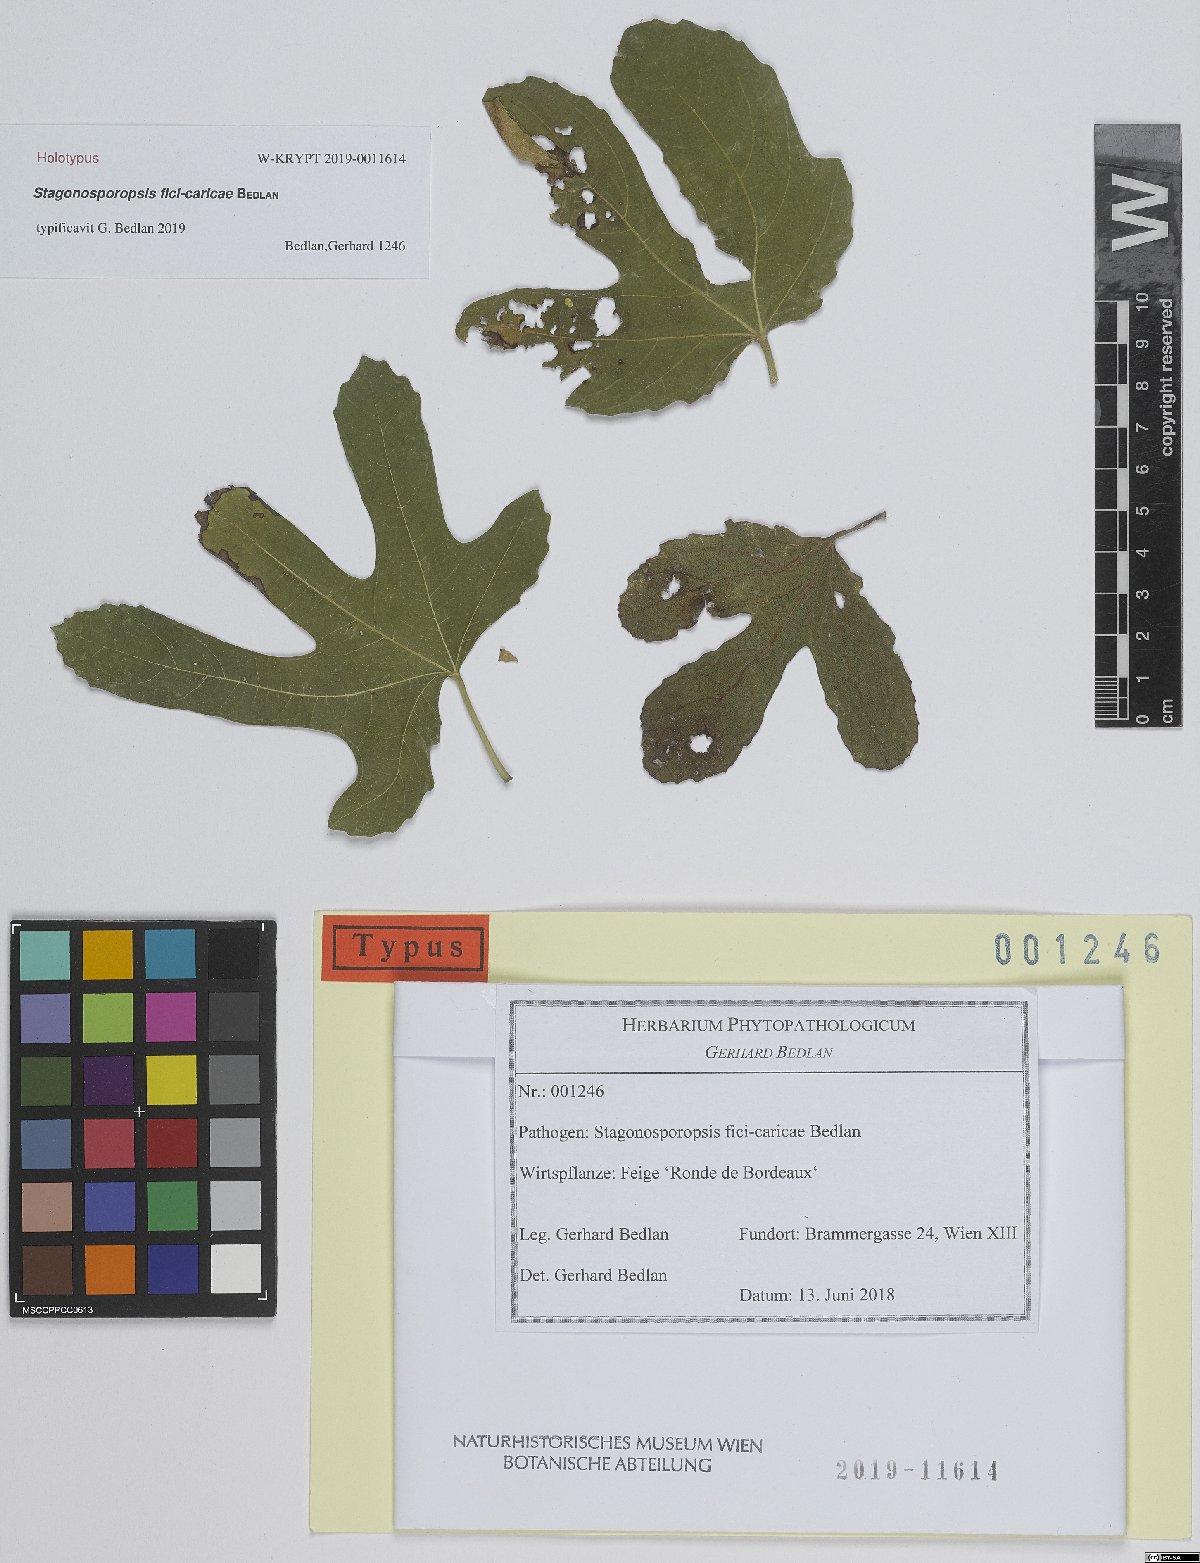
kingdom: Fungi
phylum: Ascomycota
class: Dothideomycetes
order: Pleosporales
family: Didymellaceae
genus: Stagonosporopsis
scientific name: Stagonosporopsis fici-caricae
